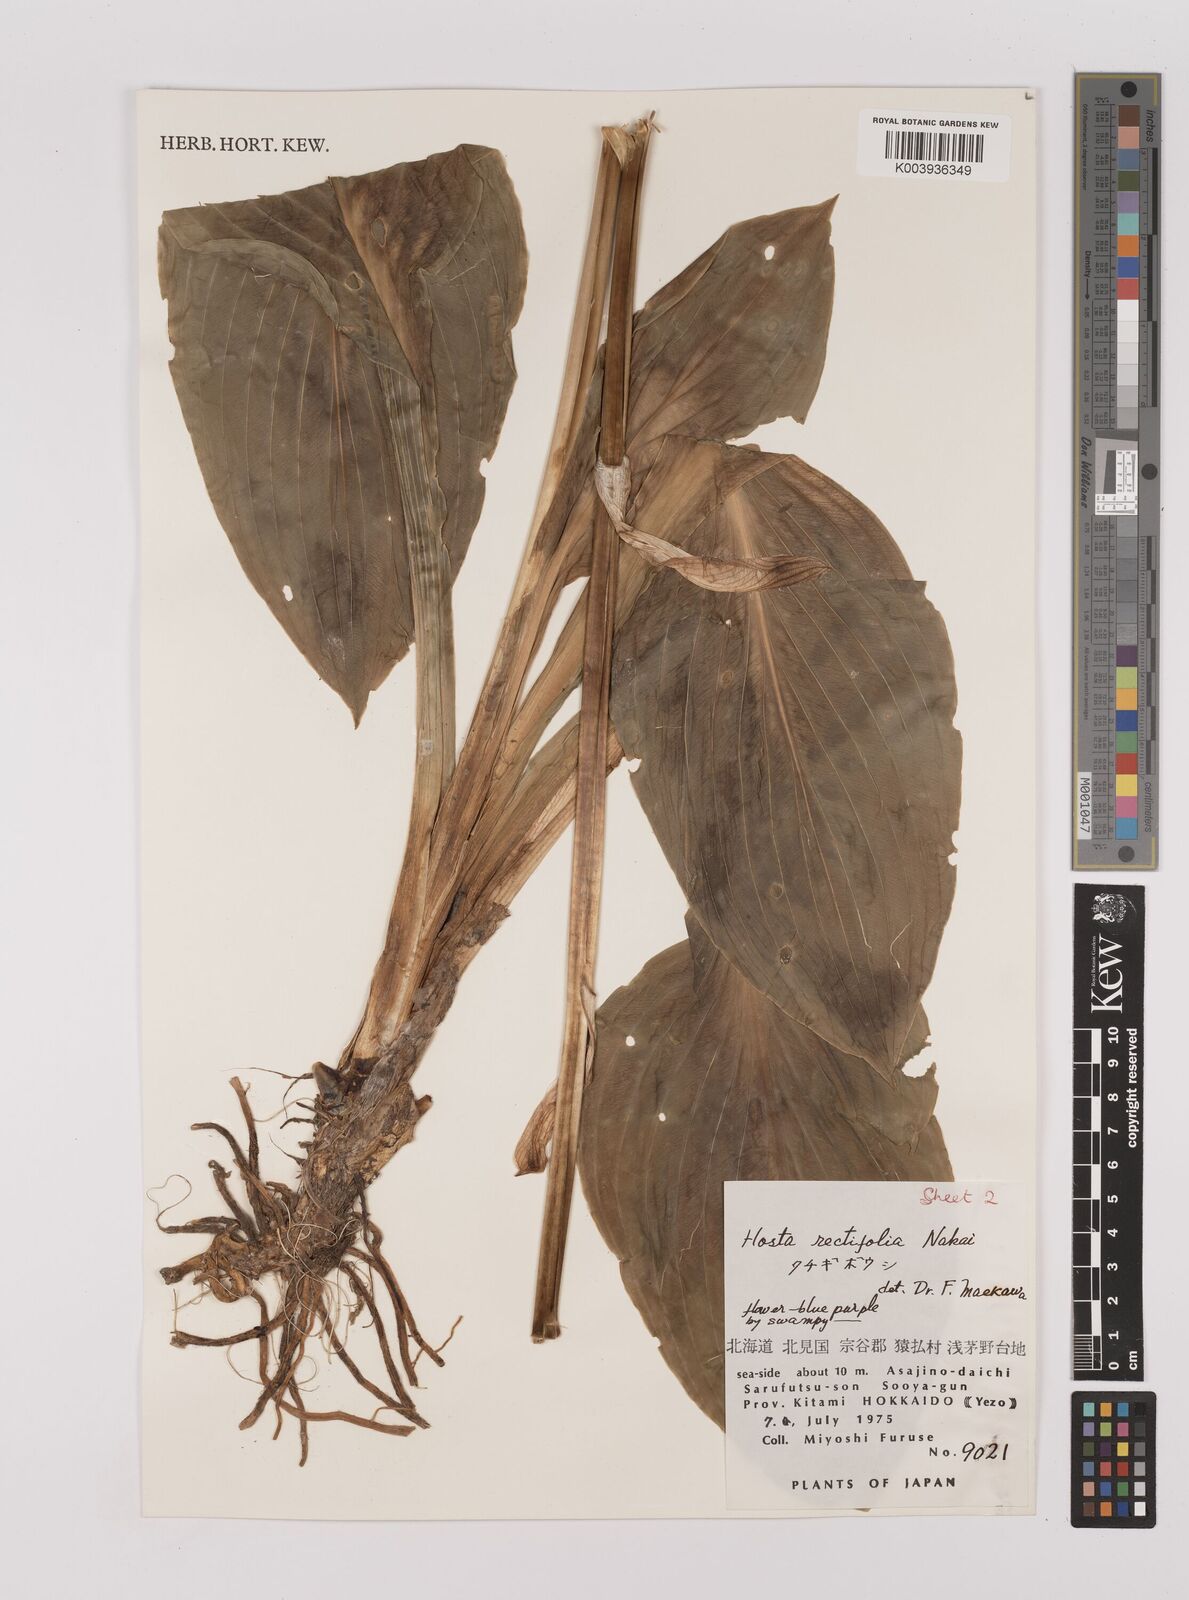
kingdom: Plantae
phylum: Tracheophyta
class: Liliopsida
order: Asparagales
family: Asparagaceae
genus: Hosta
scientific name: Hosta sieboldii
